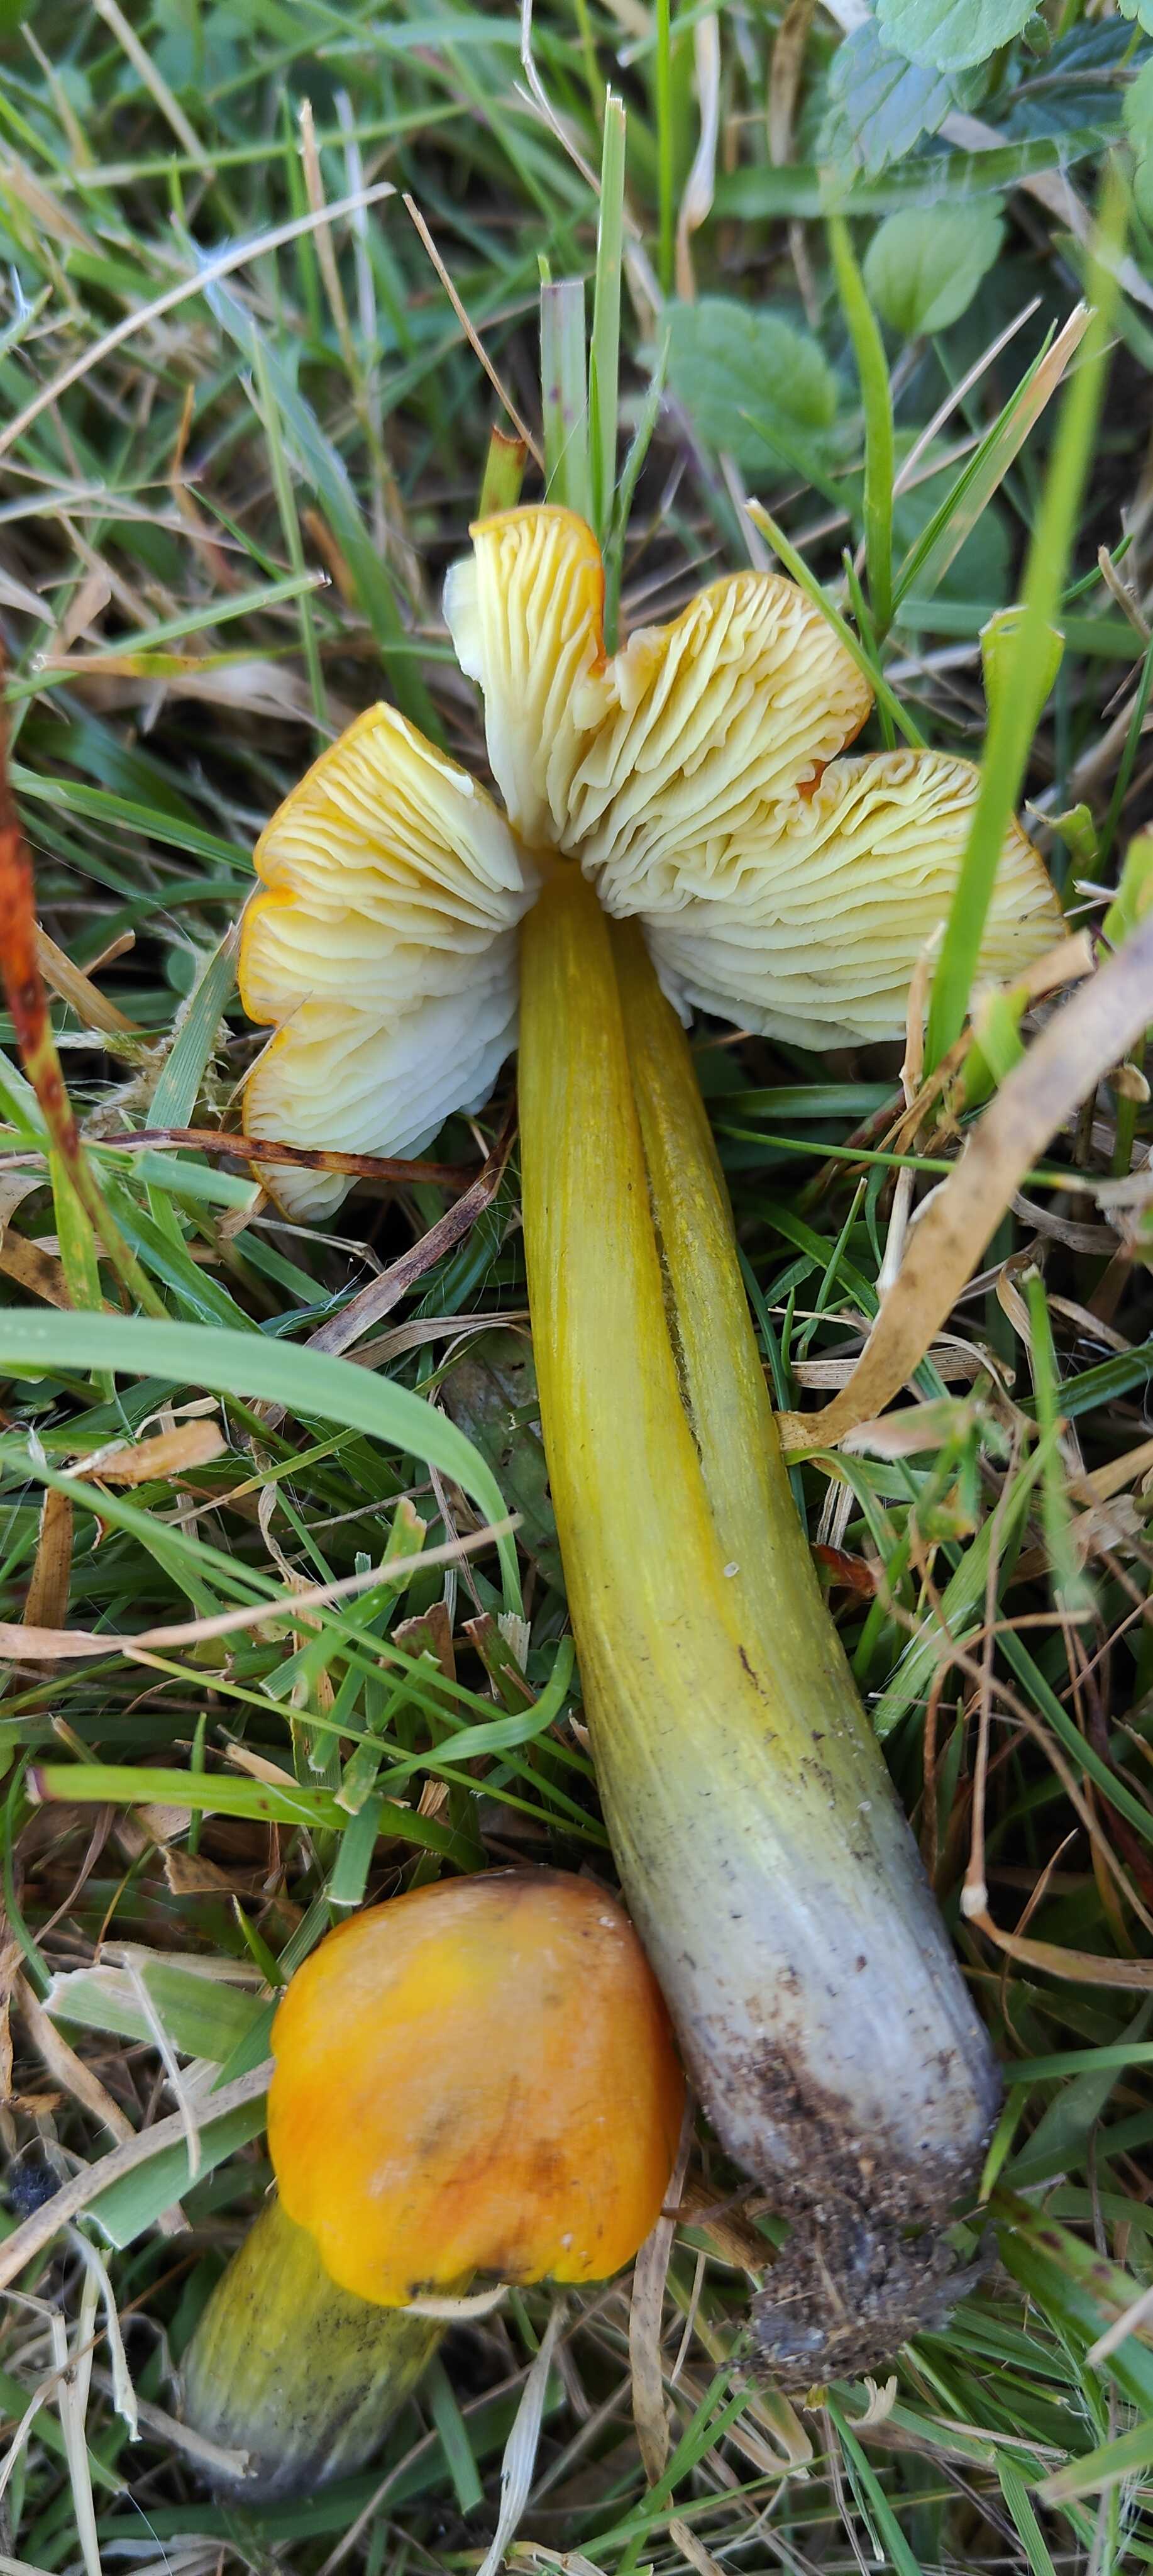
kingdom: Fungi
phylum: Basidiomycota
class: Agaricomycetes
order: Agaricales
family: Hygrophoraceae
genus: Hygrocybe
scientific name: Hygrocybe conica
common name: kegle-vokshat
